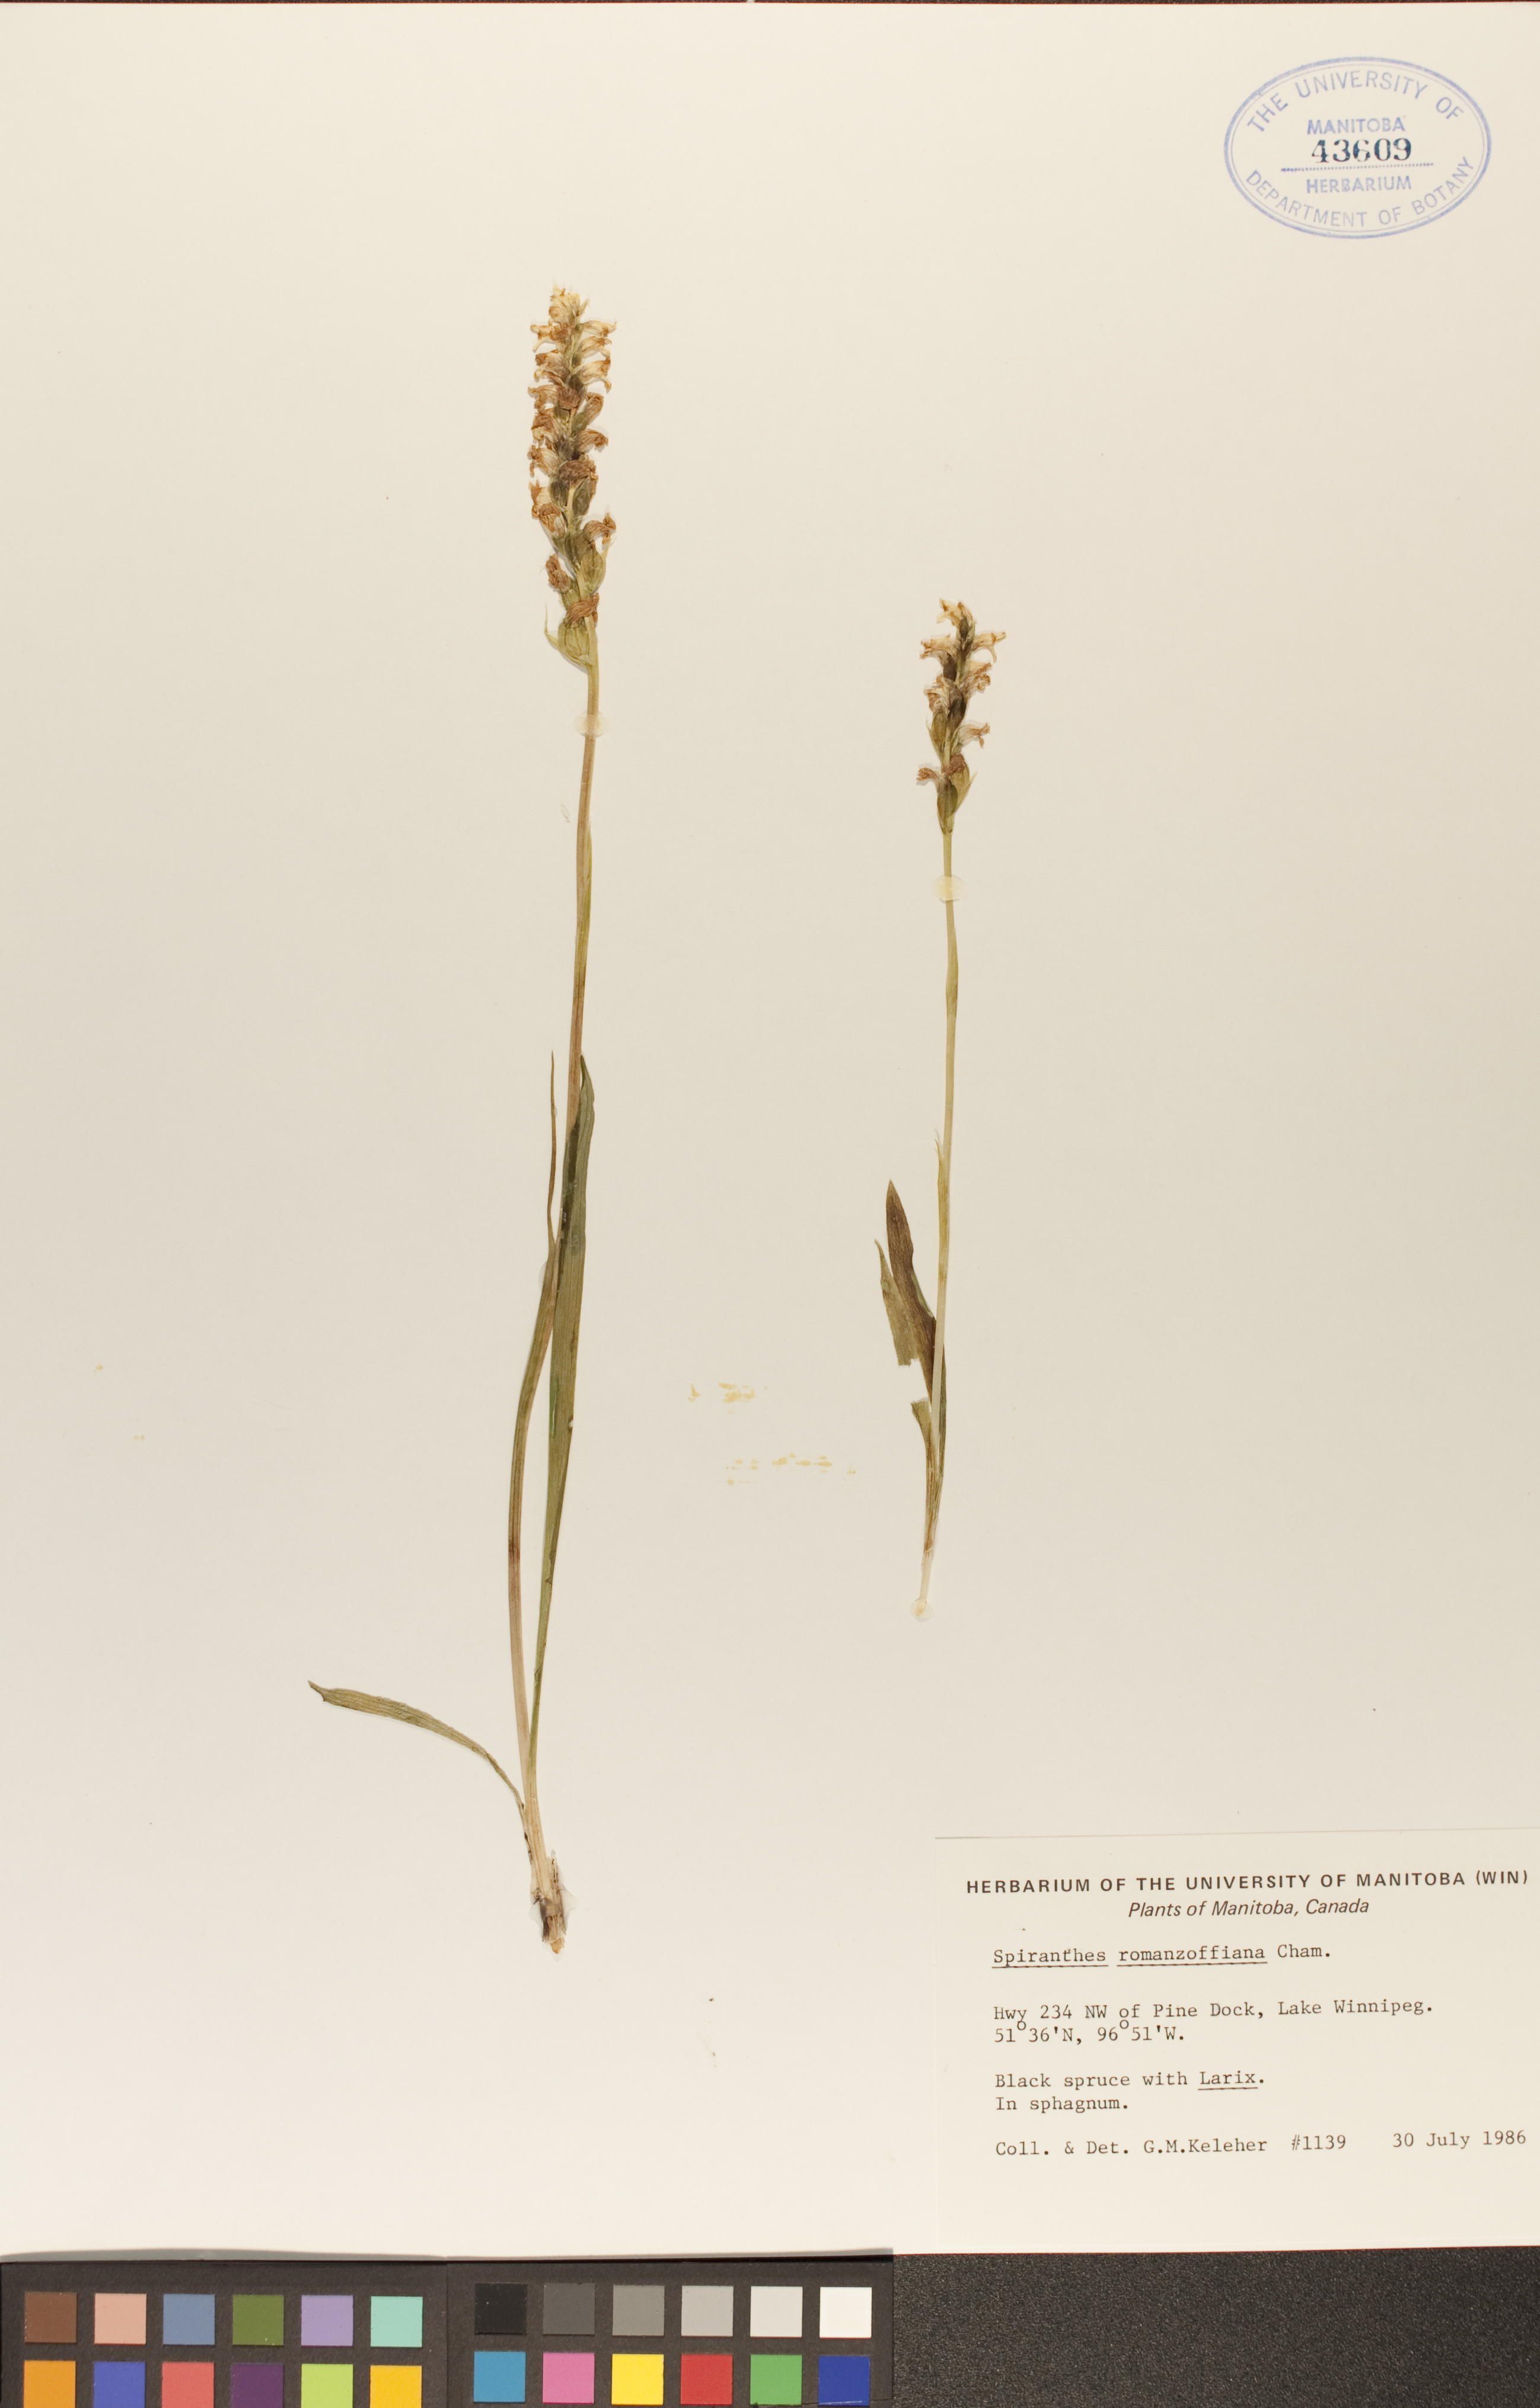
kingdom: Plantae
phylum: Tracheophyta
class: Liliopsida
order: Asparagales
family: Orchidaceae
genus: Spiranthes
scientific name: Spiranthes romanzoffiana
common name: Irish lady's-tresses
